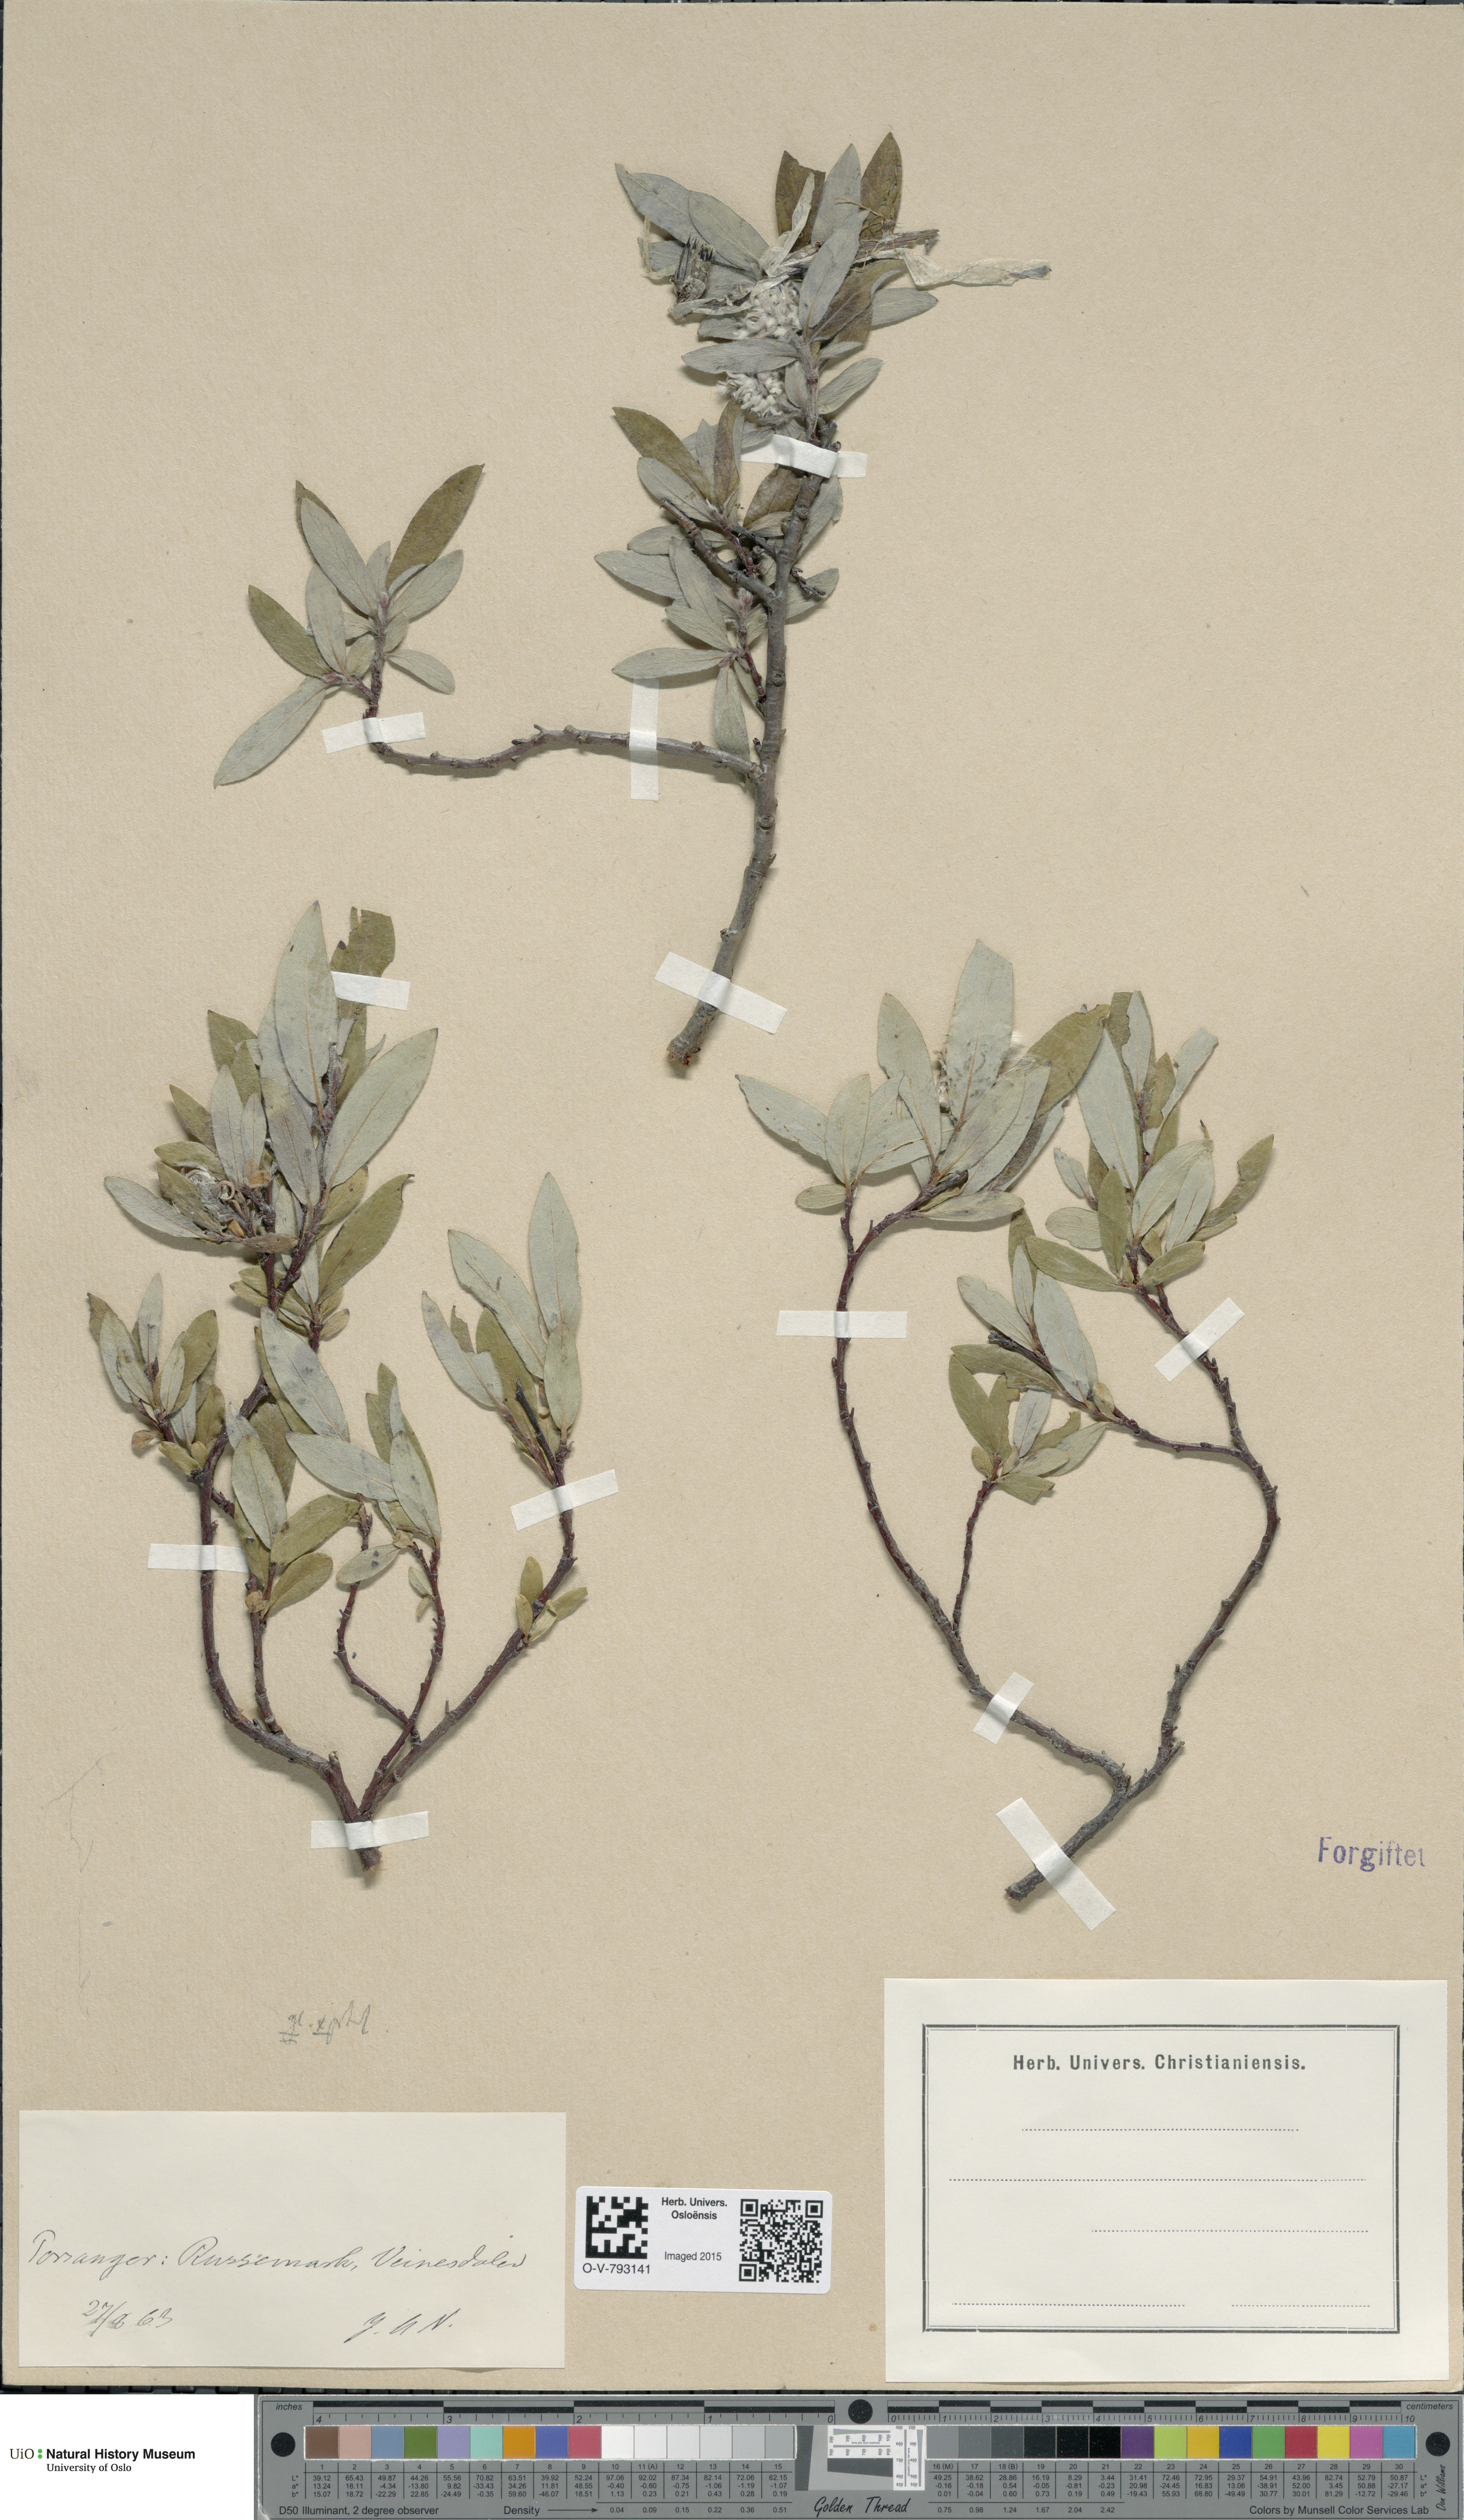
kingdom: Plantae
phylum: Tracheophyta
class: Magnoliopsida
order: Malpighiales
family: Salicaceae
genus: Salix
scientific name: Salix
